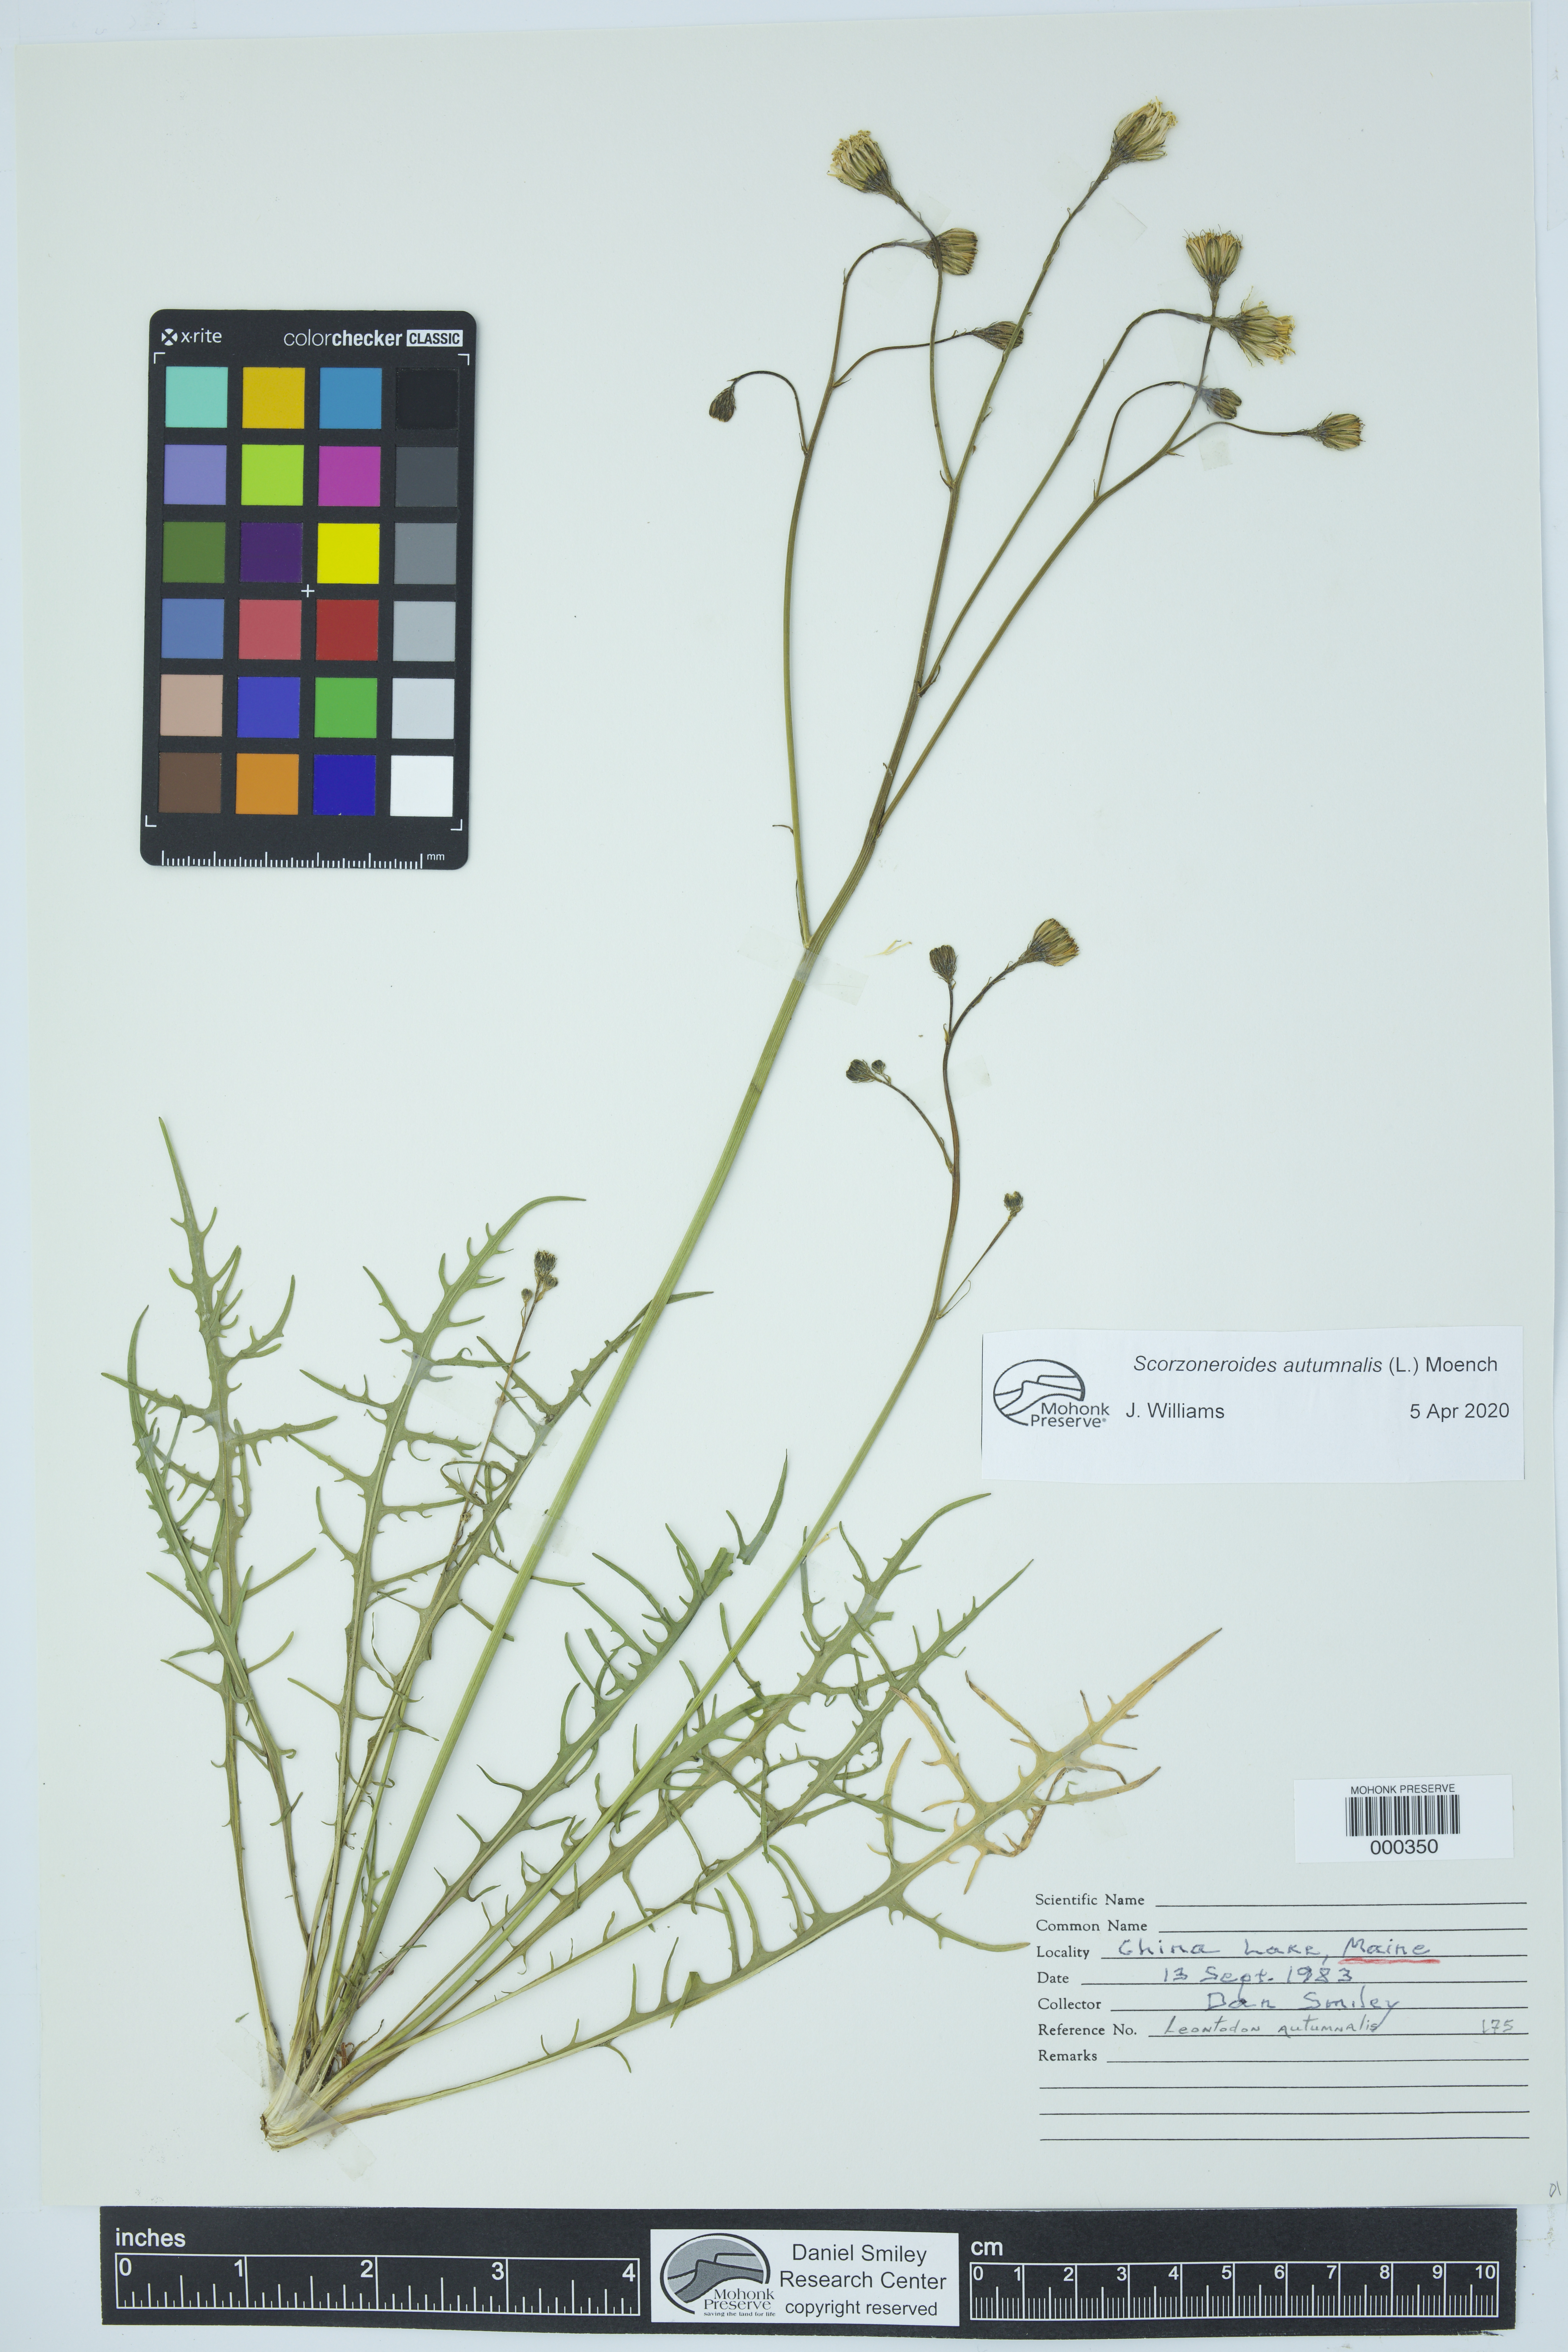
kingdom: Plantae
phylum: Tracheophyta
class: Magnoliopsida
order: Asterales
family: Asteraceae
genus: Scorzoneroides
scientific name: Scorzoneroides autumnalis
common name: Autumn hawkbit
